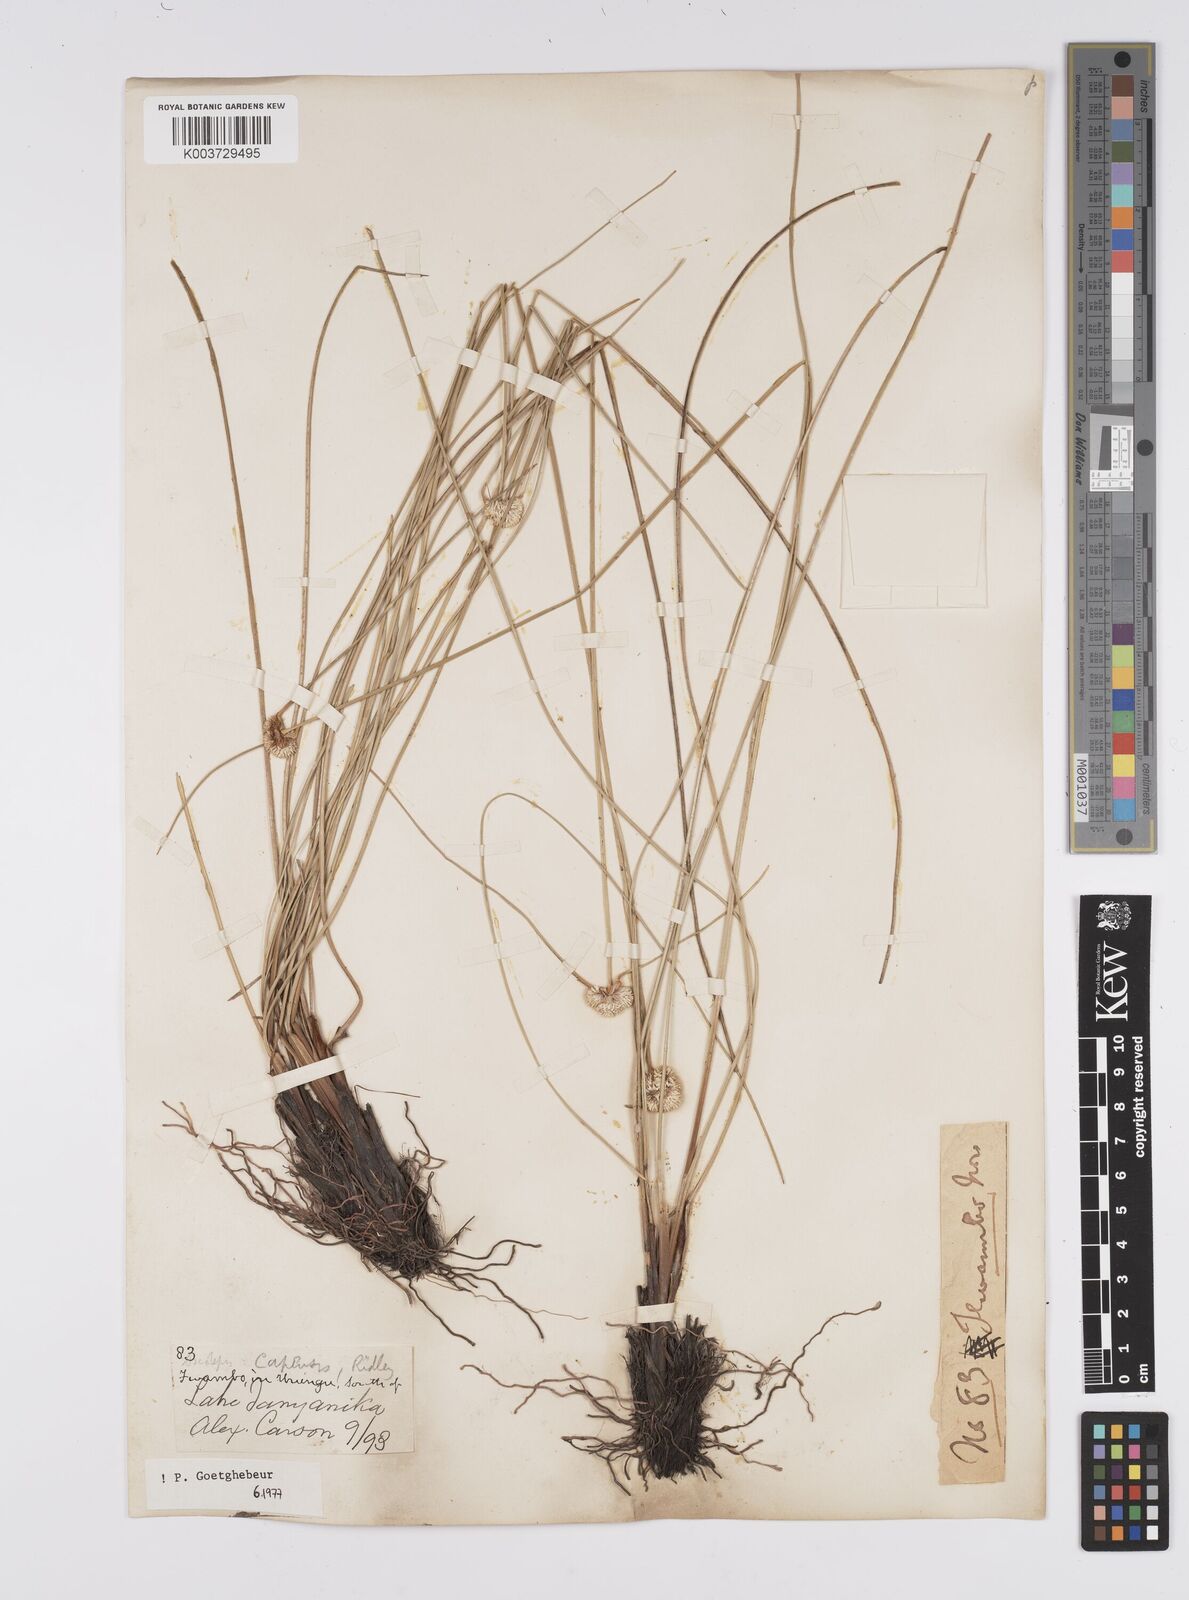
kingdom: Plantae
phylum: Tracheophyta
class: Liliopsida
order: Poales
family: Cyperaceae
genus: Cyperus
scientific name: Cyperus
